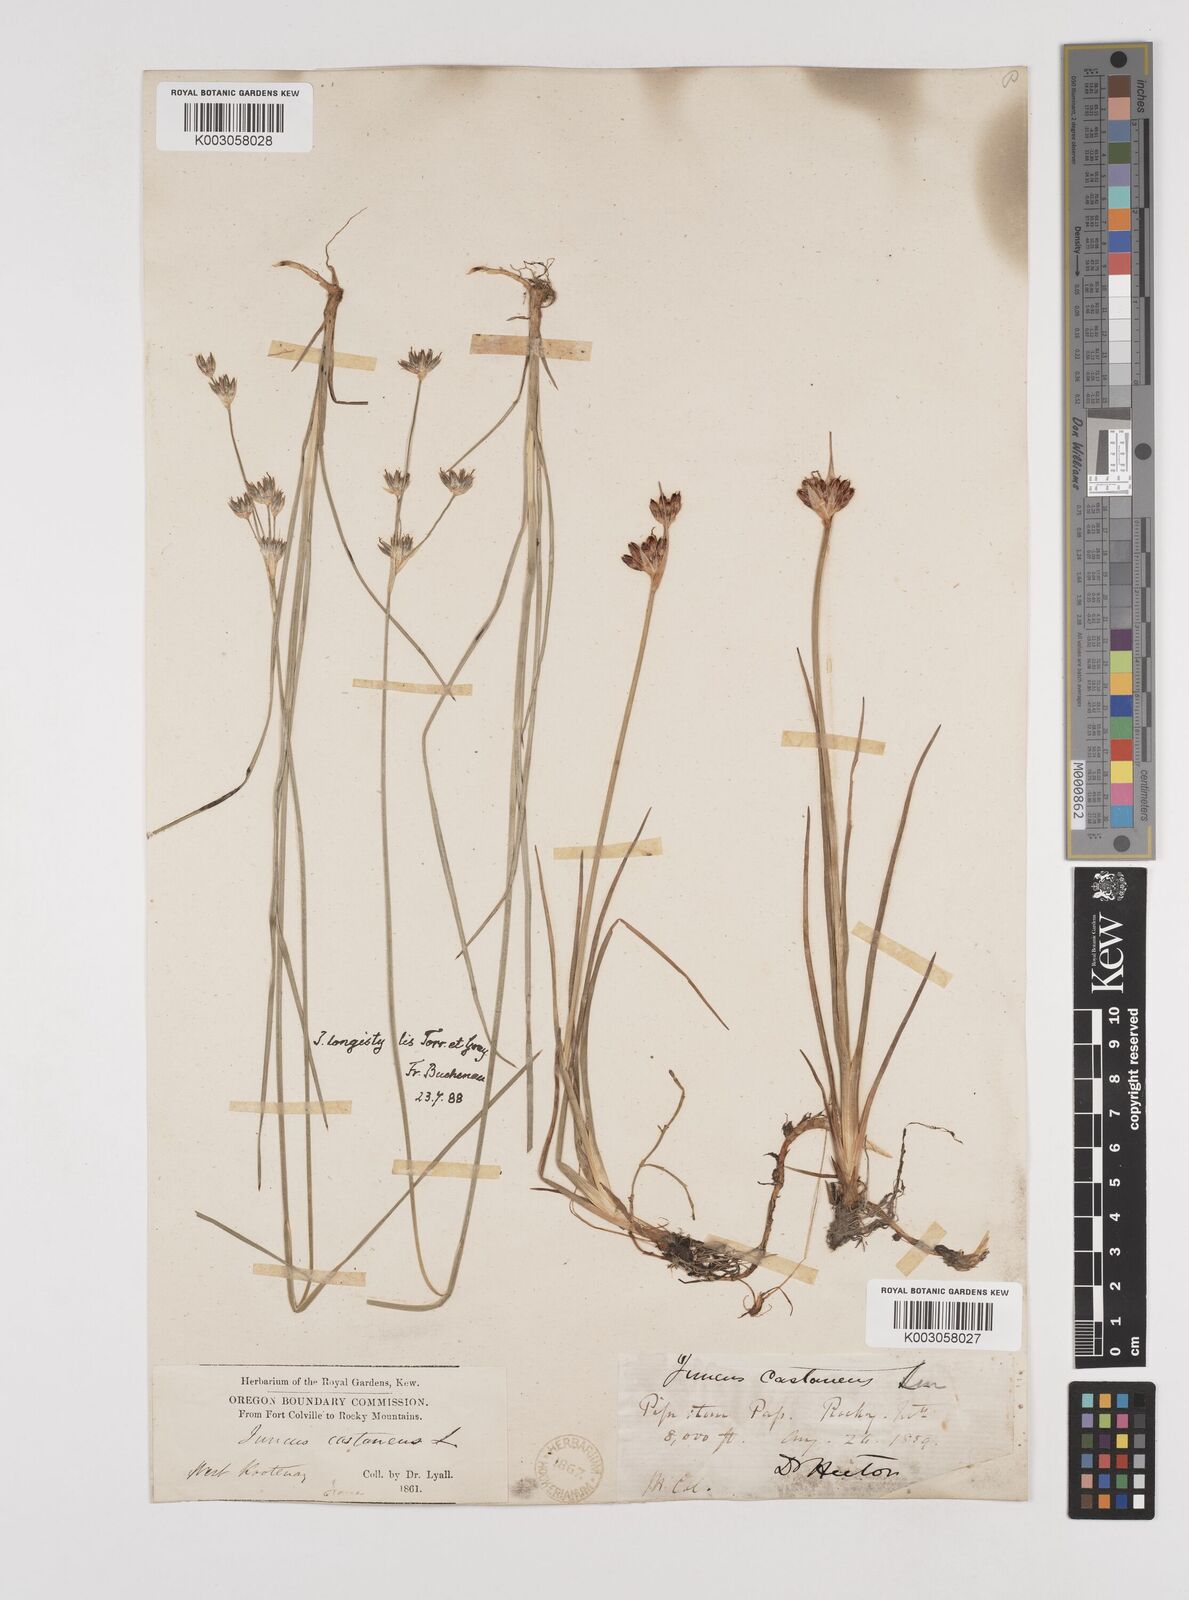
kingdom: Plantae
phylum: Tracheophyta
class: Liliopsida
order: Poales
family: Juncaceae
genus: Juncus
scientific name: Juncus longistylis
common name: Long-style rush
